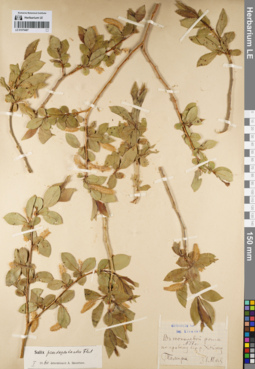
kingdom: Plantae
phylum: Tracheophyta
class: Magnoliopsida
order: Malpighiales
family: Salicaceae
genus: Salix
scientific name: Salix pseudopentandra
